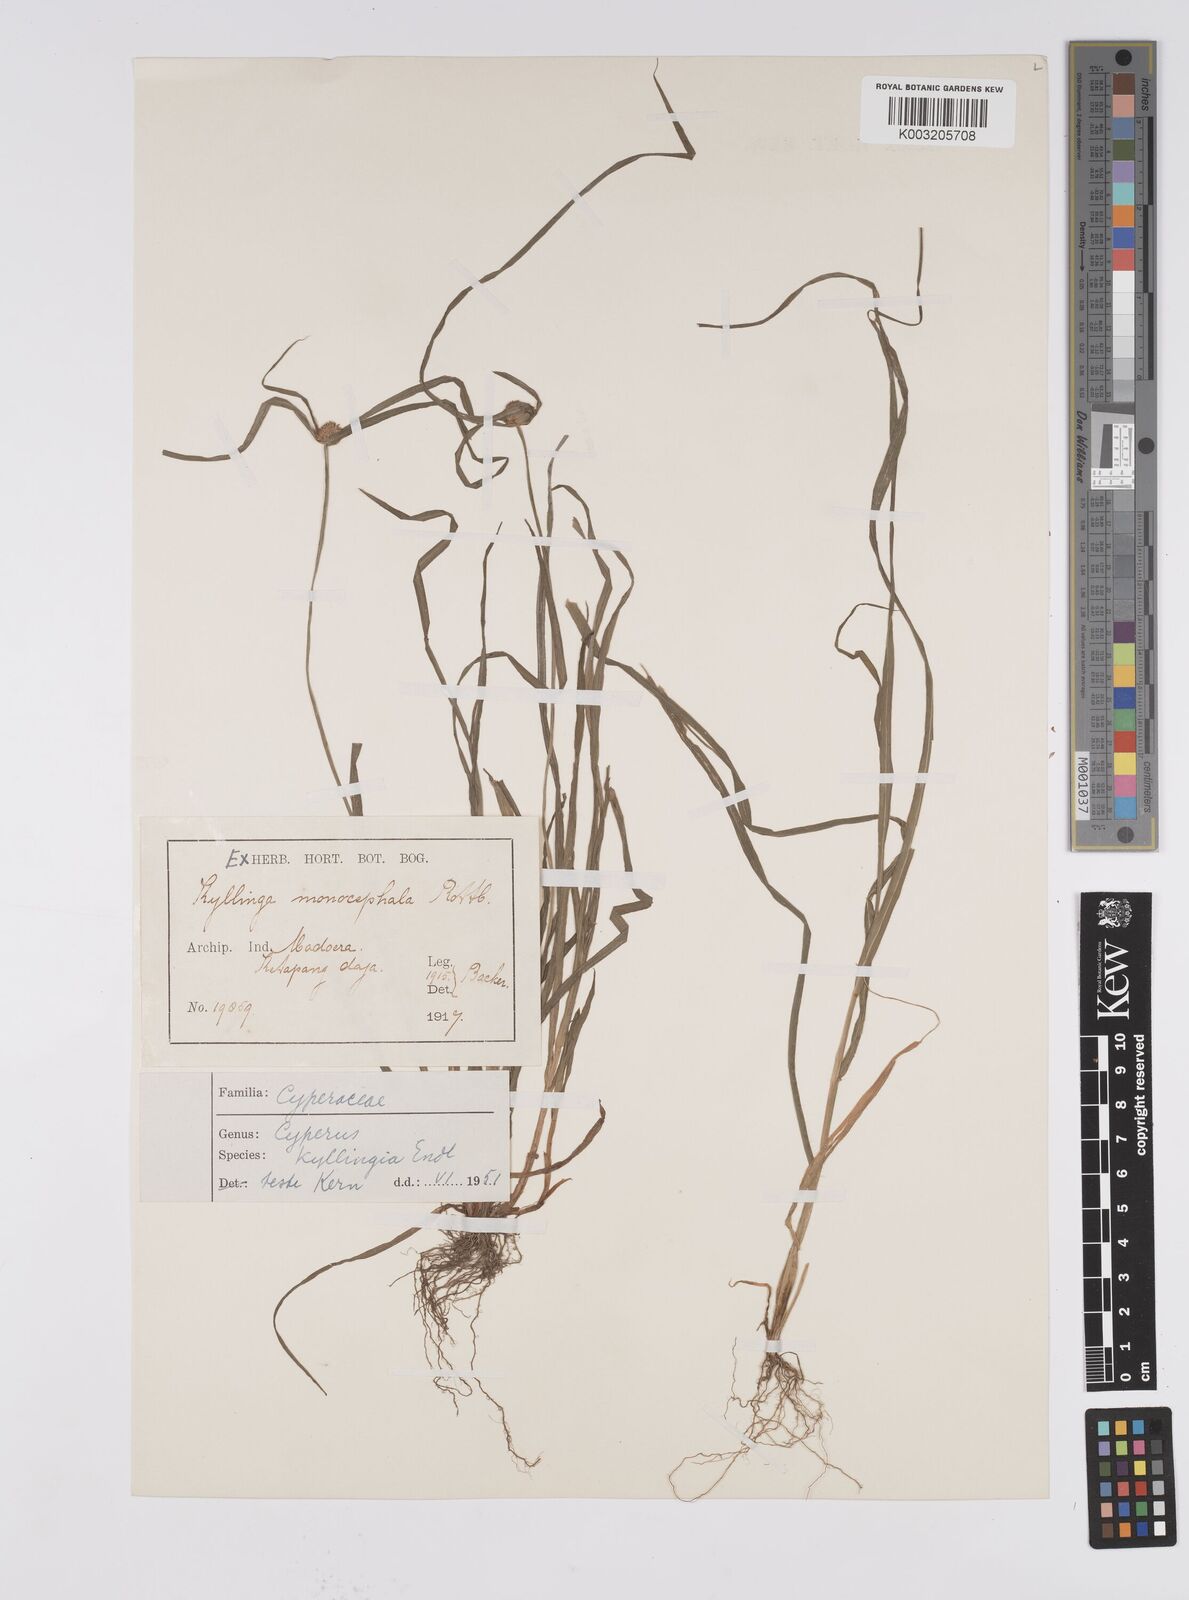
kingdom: Plantae
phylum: Tracheophyta
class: Liliopsida
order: Poales
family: Cyperaceae
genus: Cyperus
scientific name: Cyperus nemoralis
